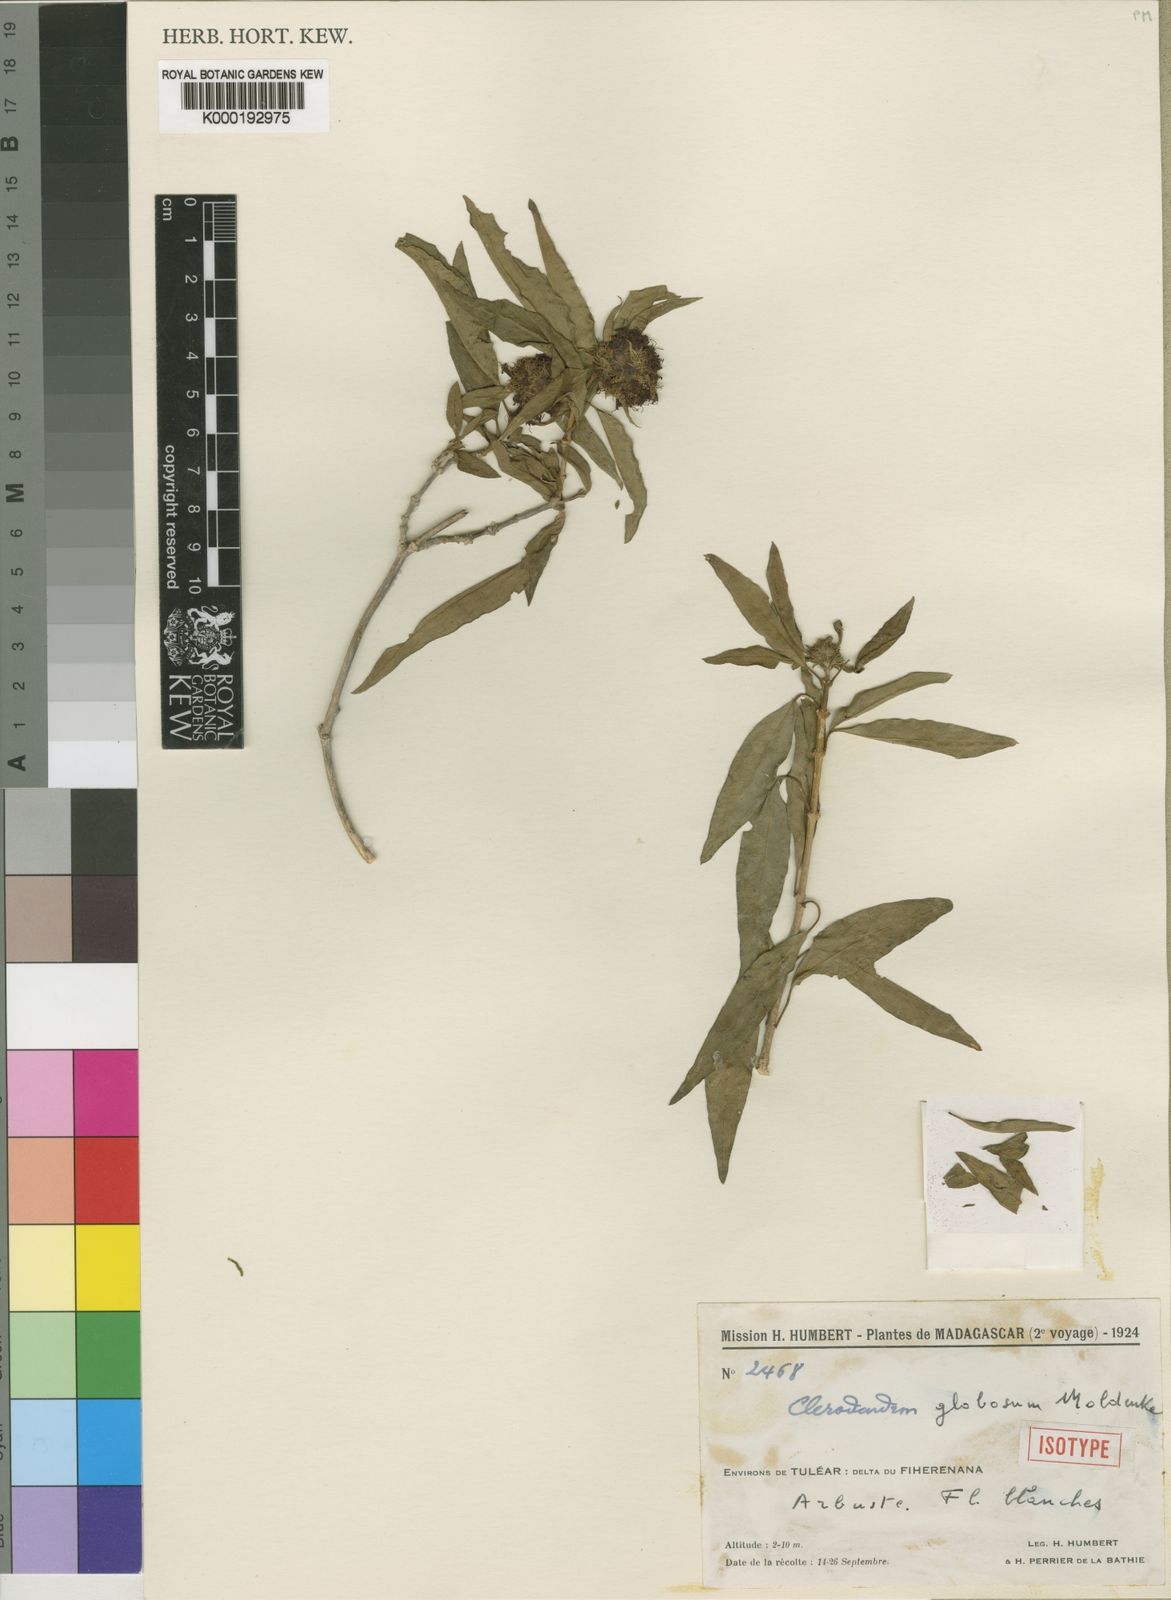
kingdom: Plantae
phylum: Tracheophyta
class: Magnoliopsida
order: Lamiales
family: Lamiaceae
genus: Clerodendrum
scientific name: Clerodendrum globosum
